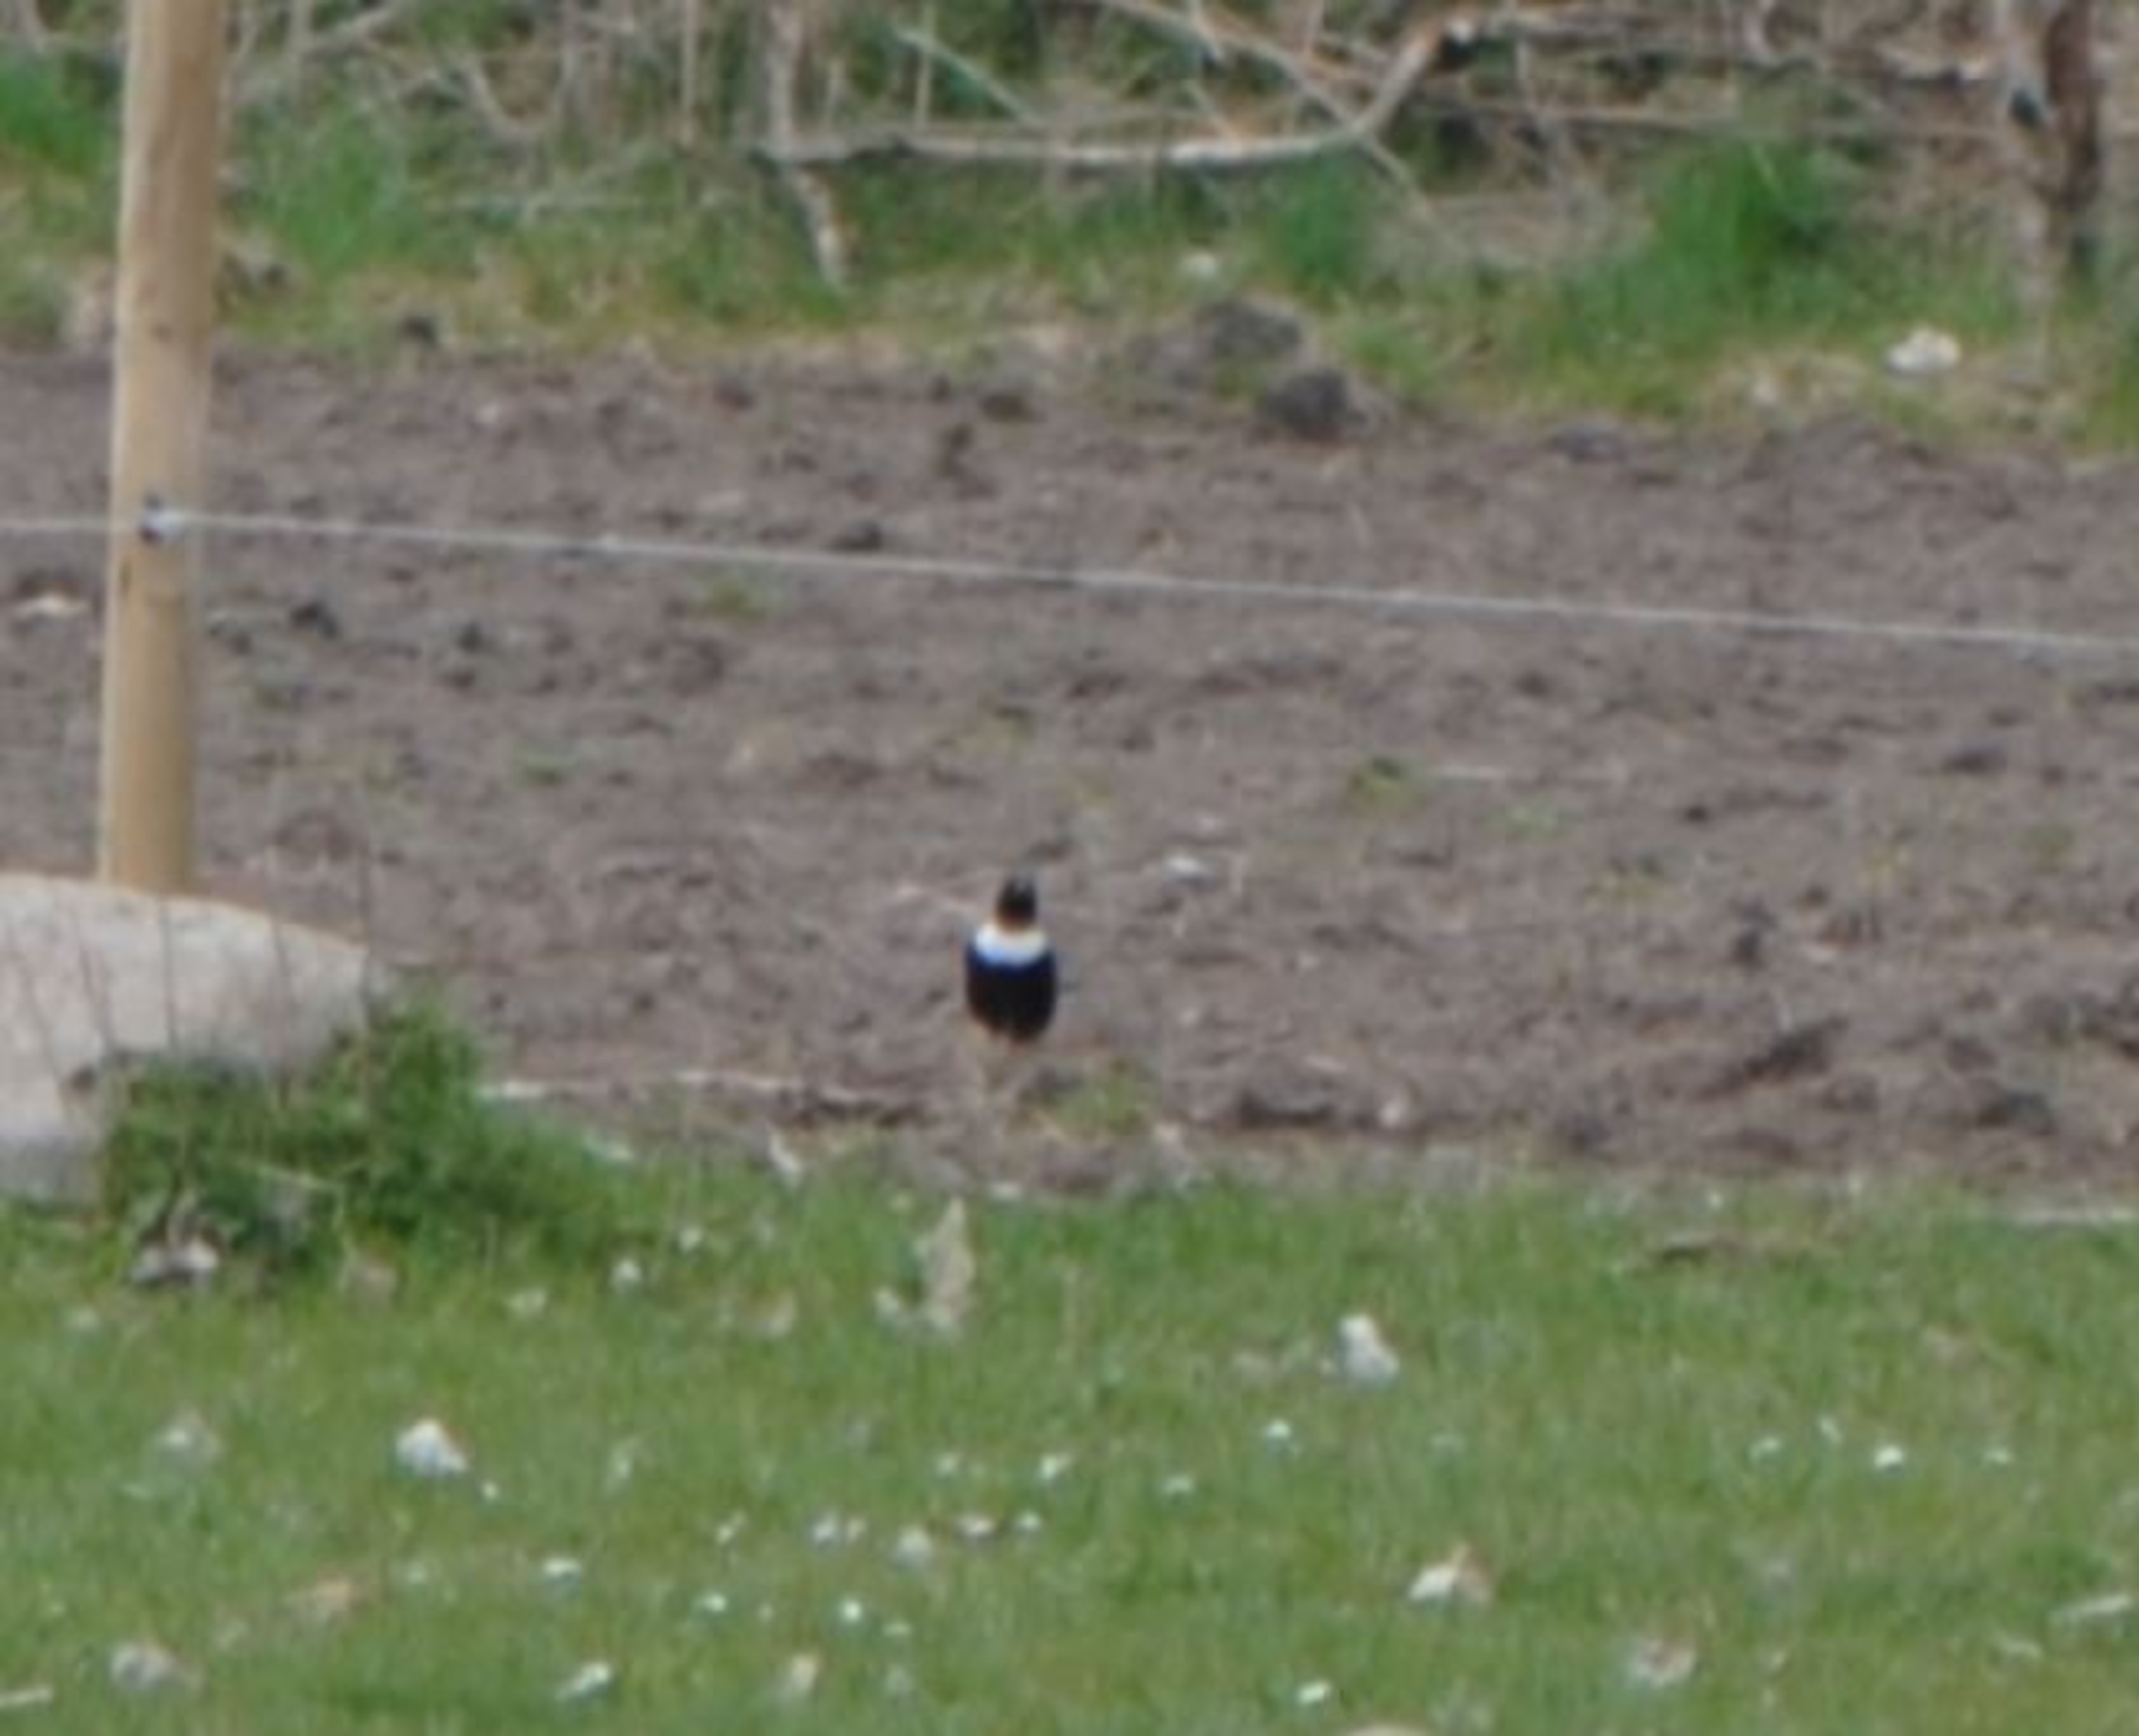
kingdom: Animalia
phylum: Chordata
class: Aves
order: Passeriformes
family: Turdidae
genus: Turdus
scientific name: Turdus torquatus
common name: Ringdrossel
